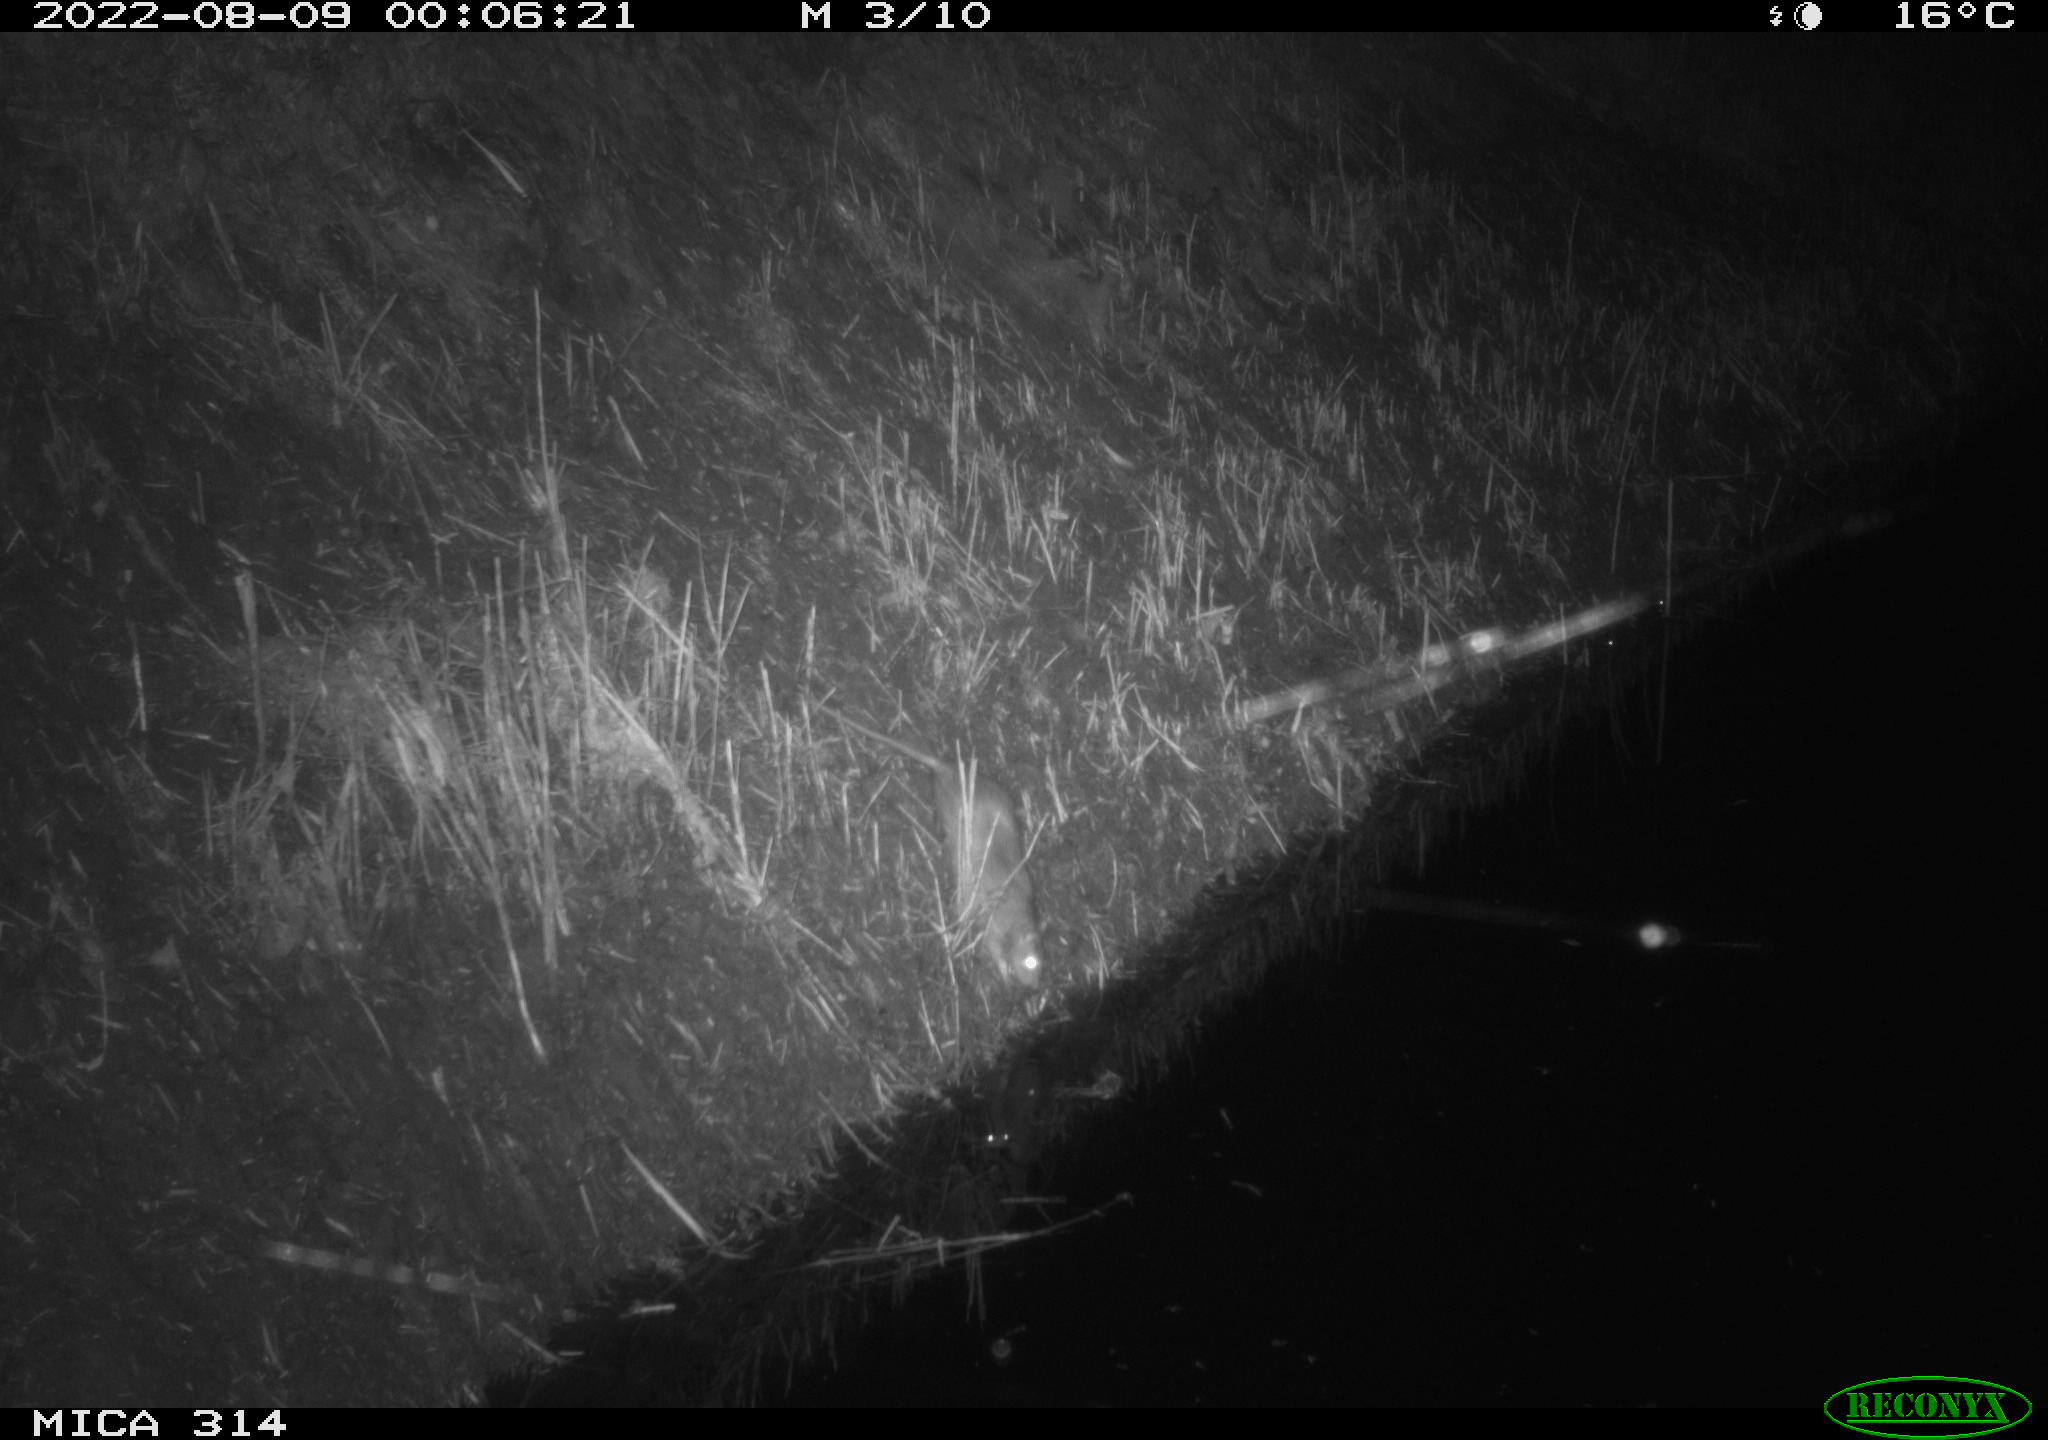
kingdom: Animalia
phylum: Chordata
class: Mammalia
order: Rodentia
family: Muridae
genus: Rattus
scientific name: Rattus norvegicus
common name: Brown rat
